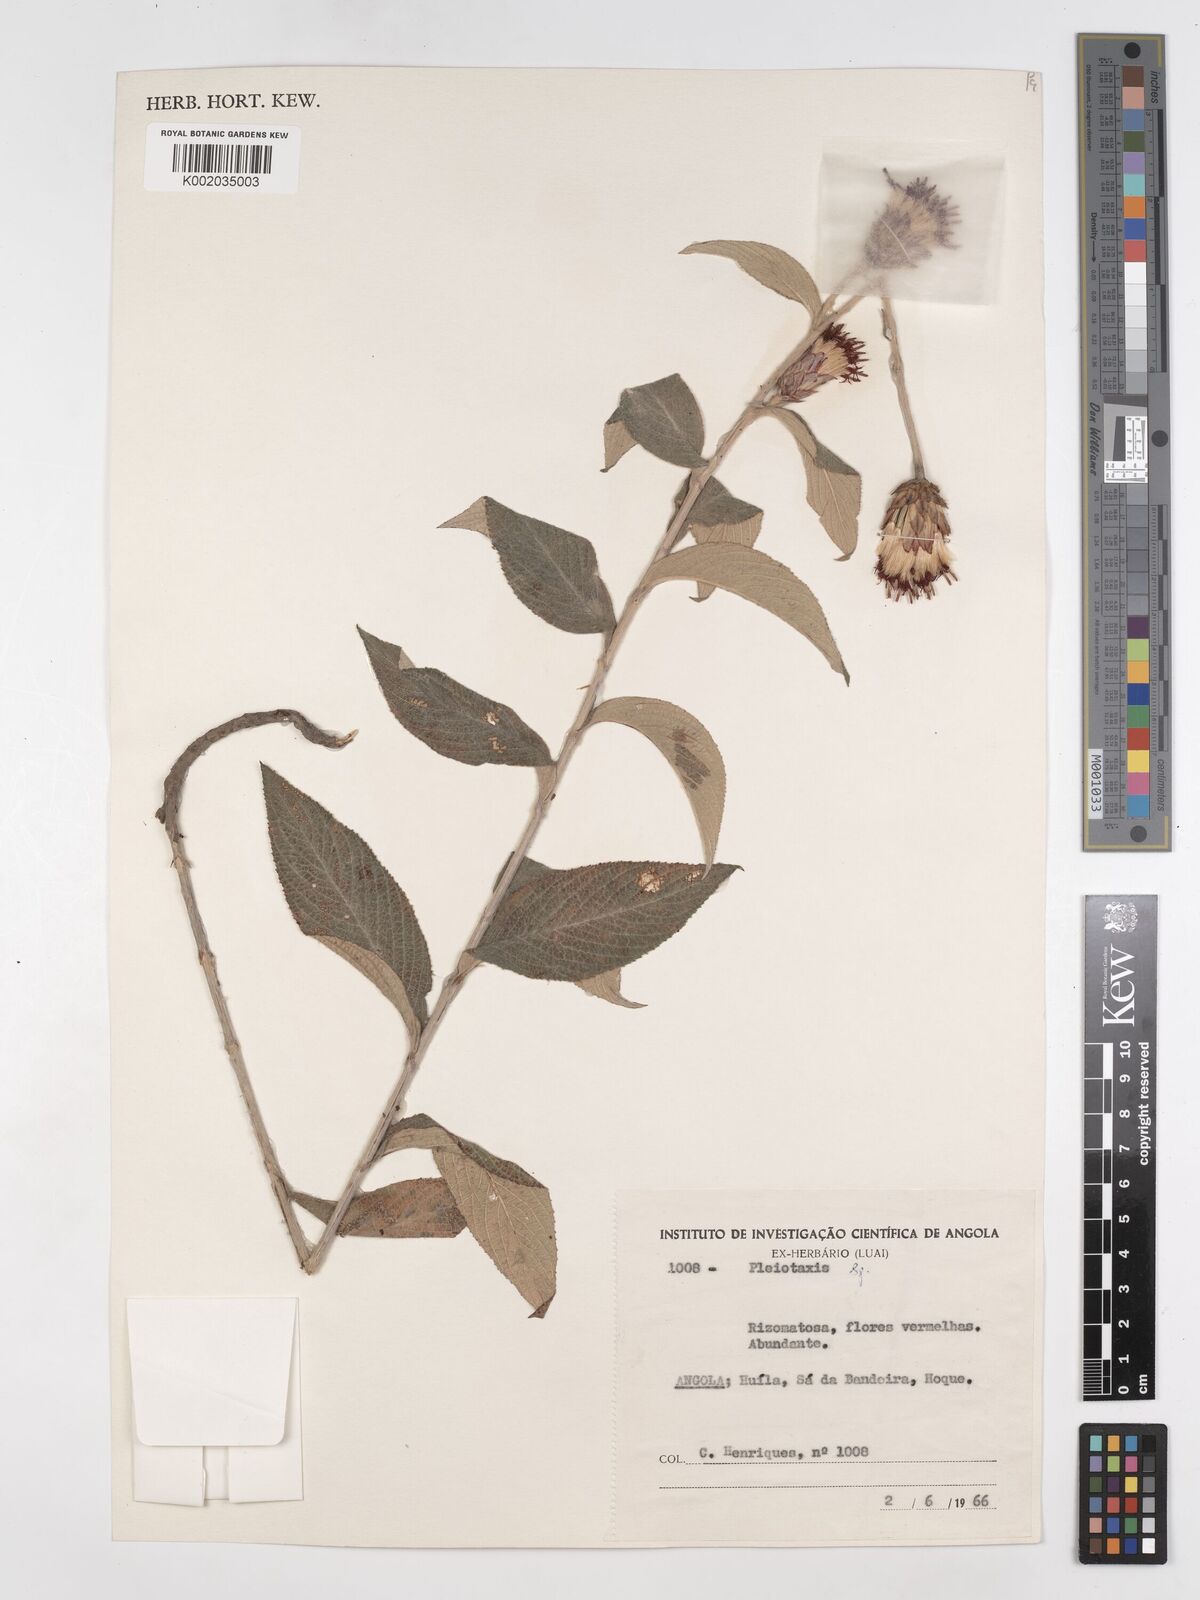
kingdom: Plantae
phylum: Tracheophyta
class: Magnoliopsida
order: Asterales
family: Asteraceae
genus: Pleiotaxis
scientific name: Pleiotaxis huillensis
